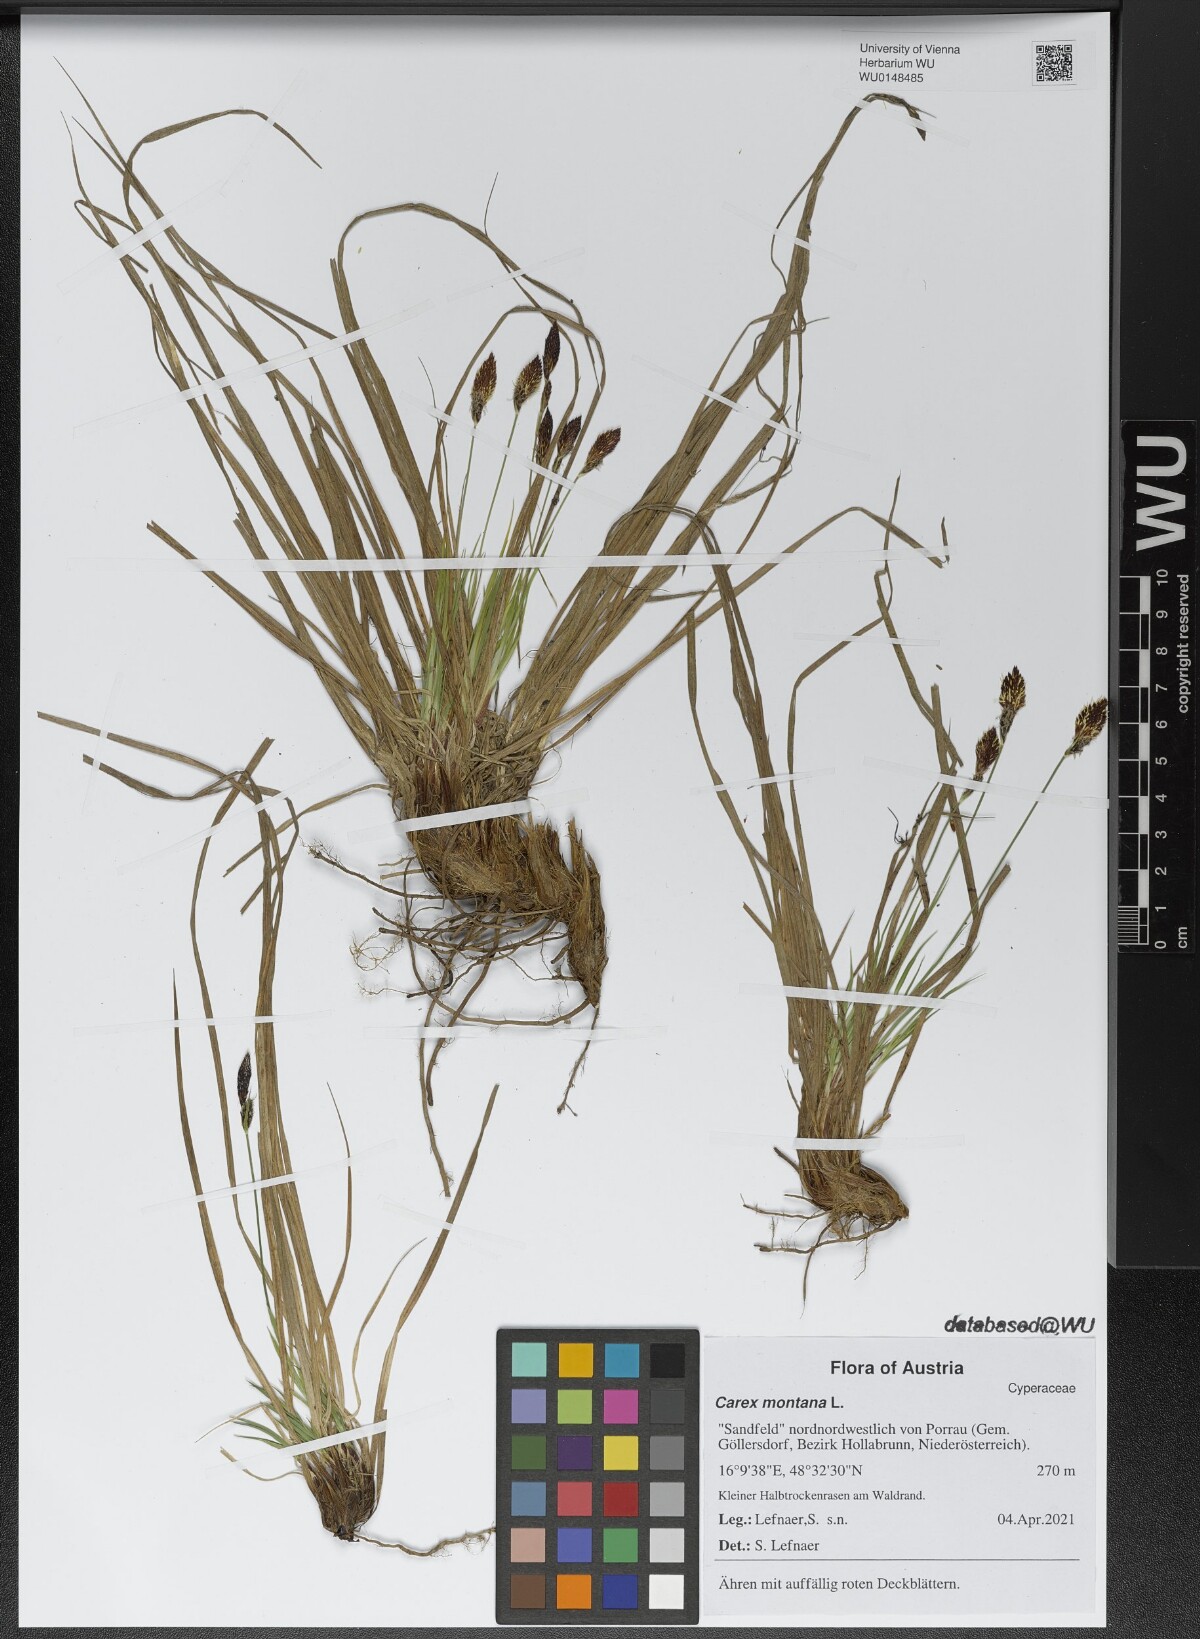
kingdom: Plantae
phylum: Tracheophyta
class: Liliopsida
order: Poales
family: Cyperaceae
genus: Carex
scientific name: Carex montana
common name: Soft-leaved sedge
